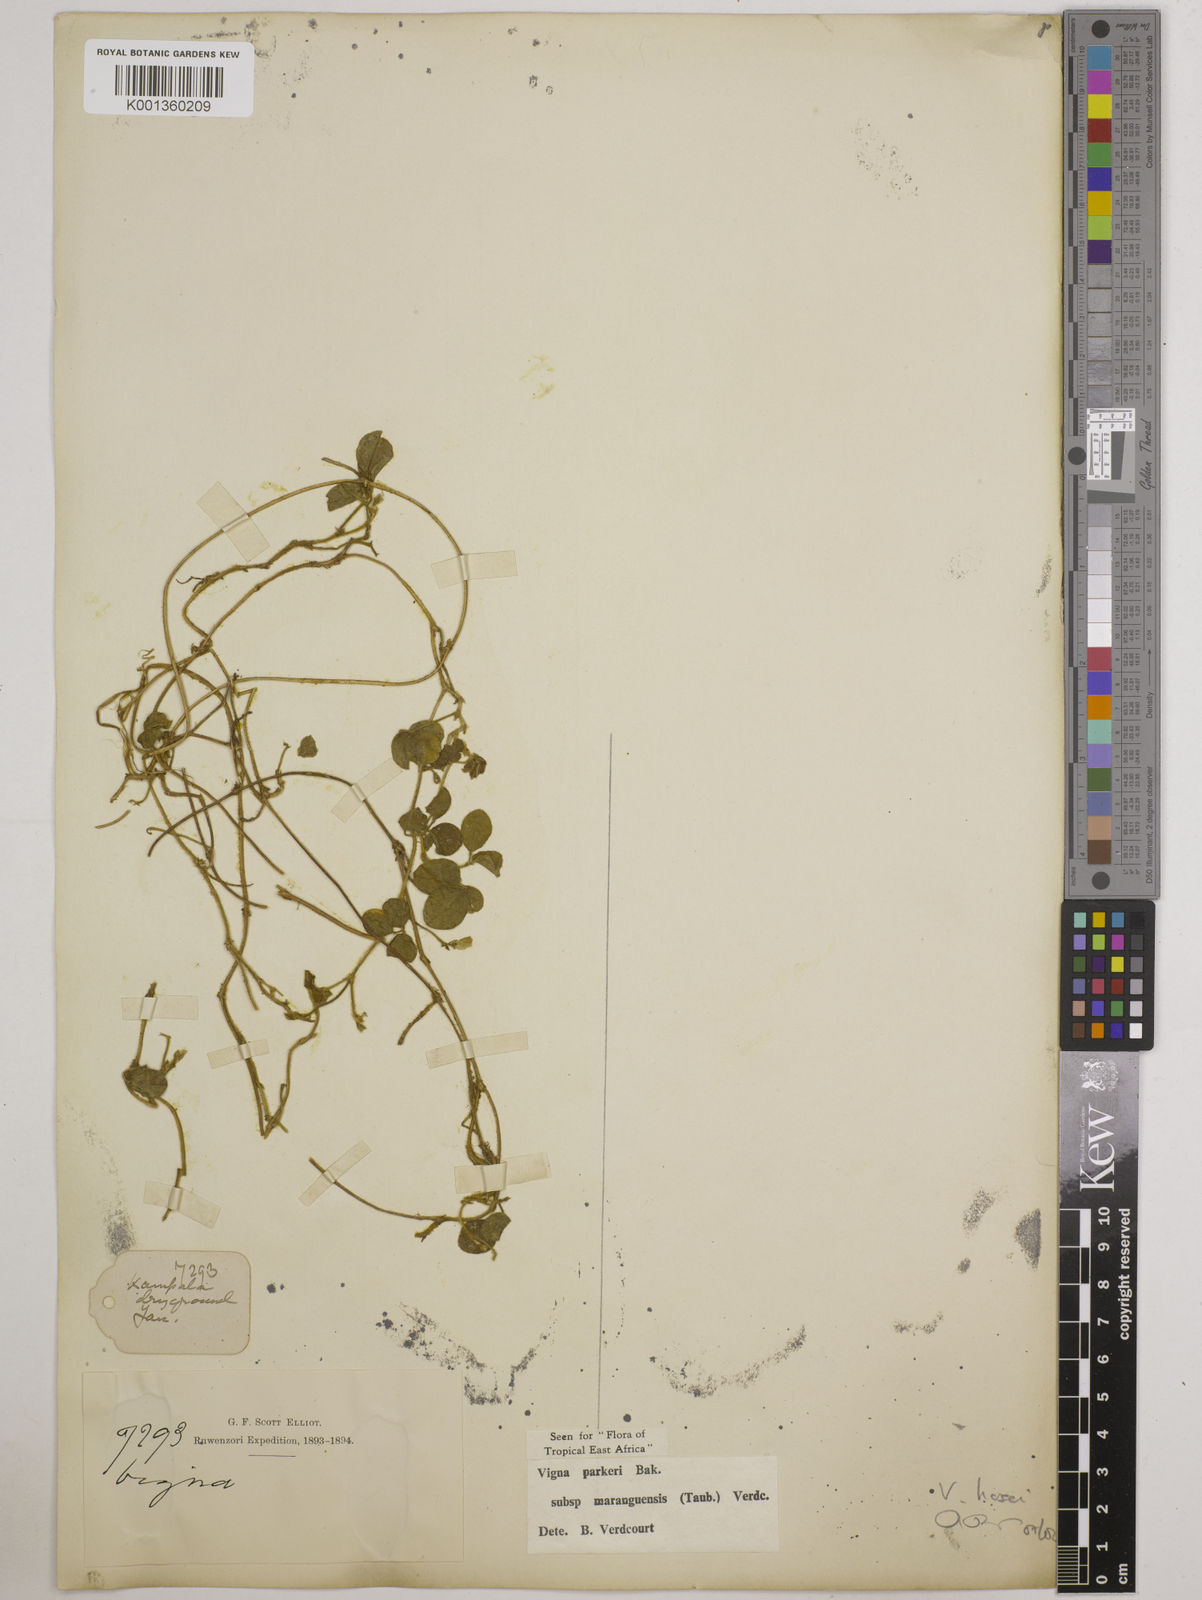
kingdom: Plantae
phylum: Tracheophyta
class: Magnoliopsida
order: Fabales
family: Fabaceae
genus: Vigna
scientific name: Vigna hosei
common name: Sarawak-bean
